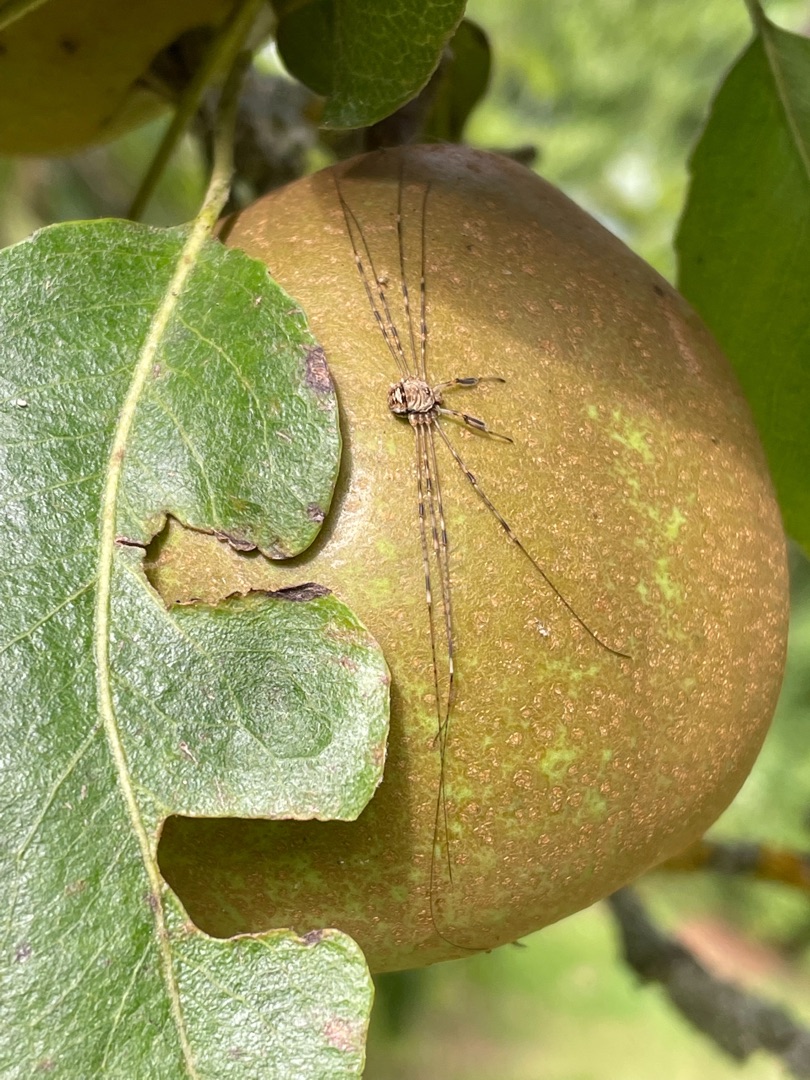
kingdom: Animalia
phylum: Arthropoda
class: Arachnida
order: Opiliones
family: Phalangiidae
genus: Dicranopalpus
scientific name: Dicranopalpus ramosus
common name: Gaffelmejer
